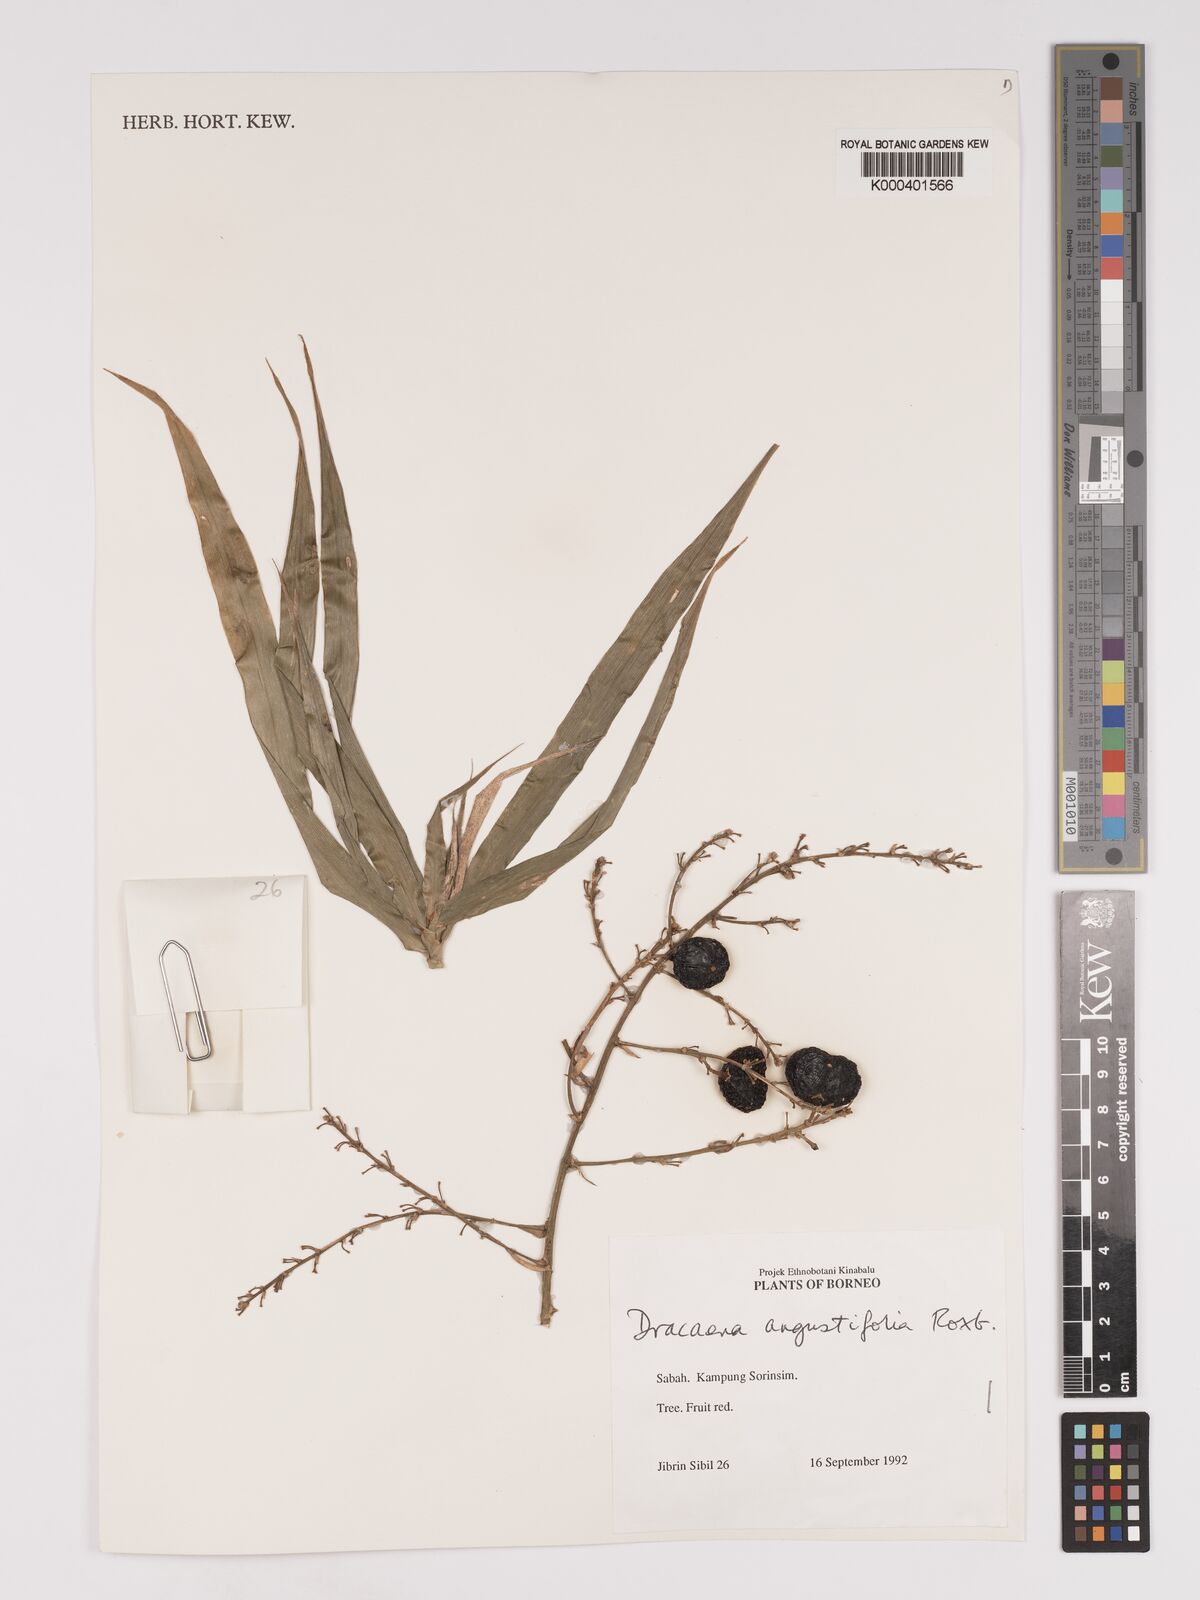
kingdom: Plantae
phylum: Tracheophyta
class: Liliopsida
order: Asparagales
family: Asparagaceae
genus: Dracaena
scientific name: Dracaena angustifolia
